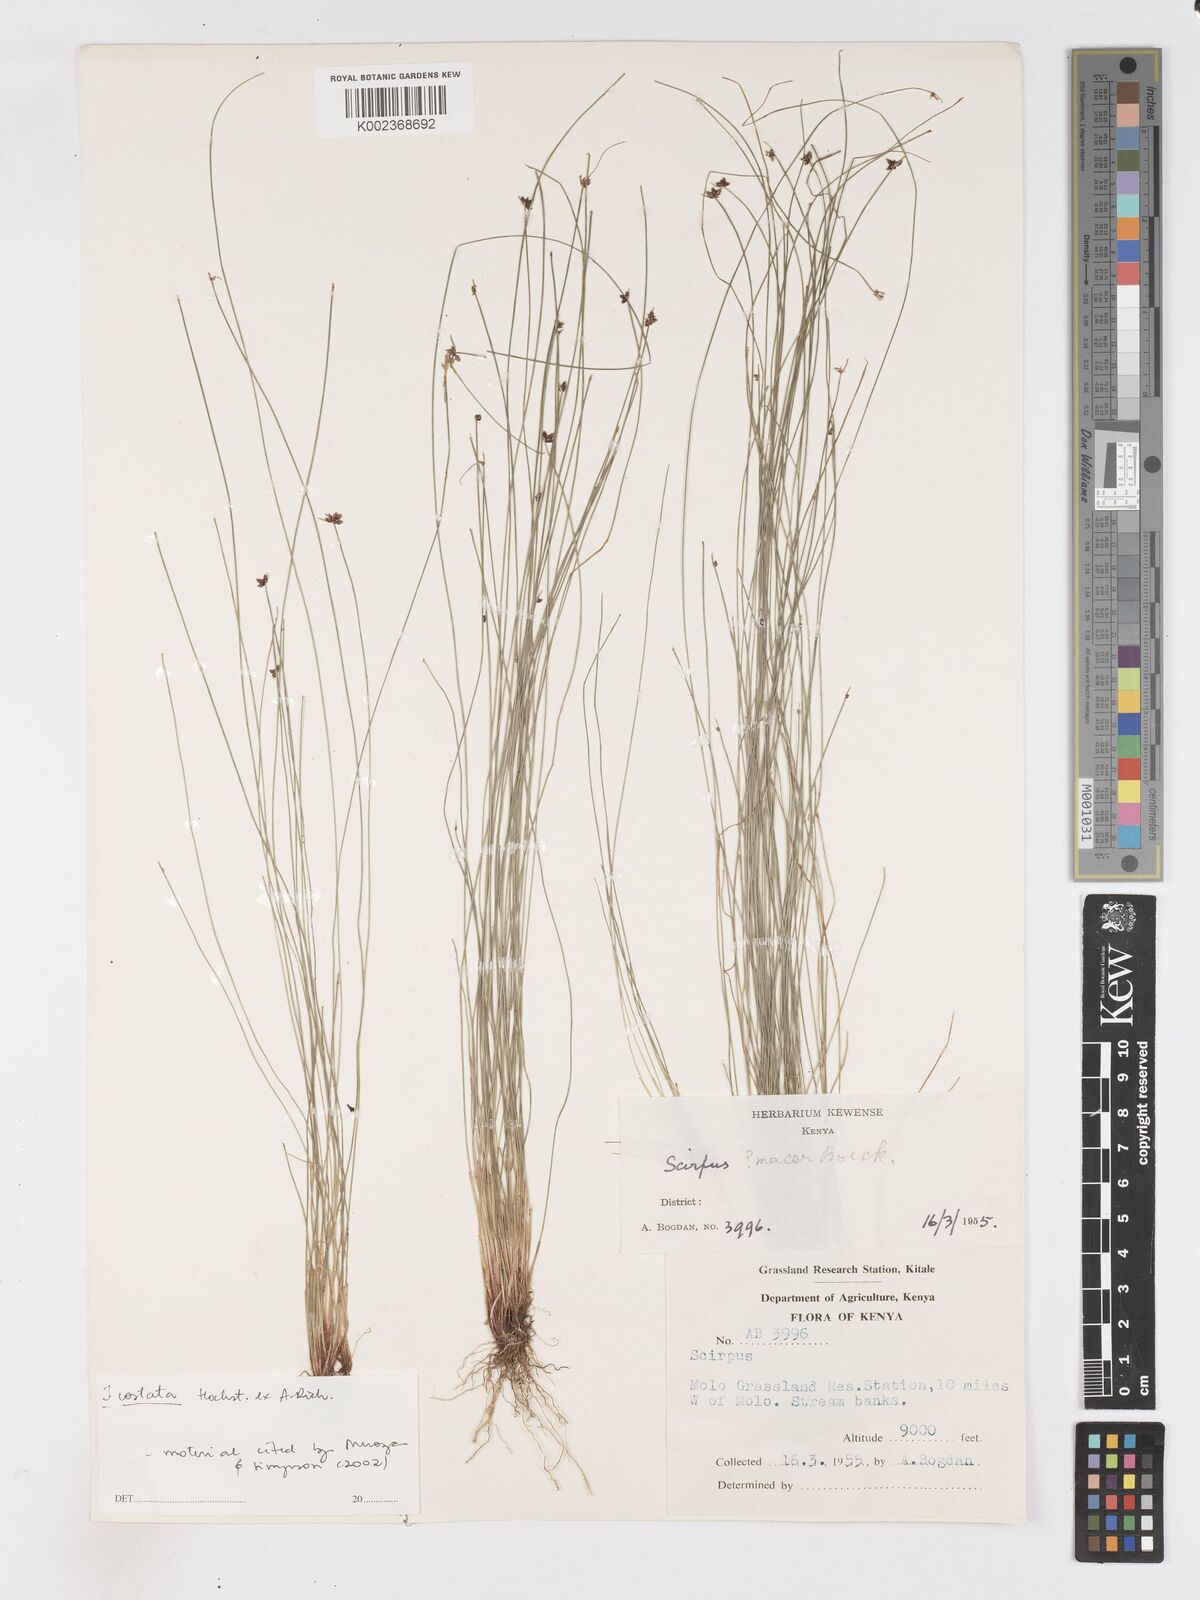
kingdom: Plantae
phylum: Tracheophyta
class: Liliopsida
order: Poales
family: Cyperaceae
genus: Isolepis
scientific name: Isolepis costata
